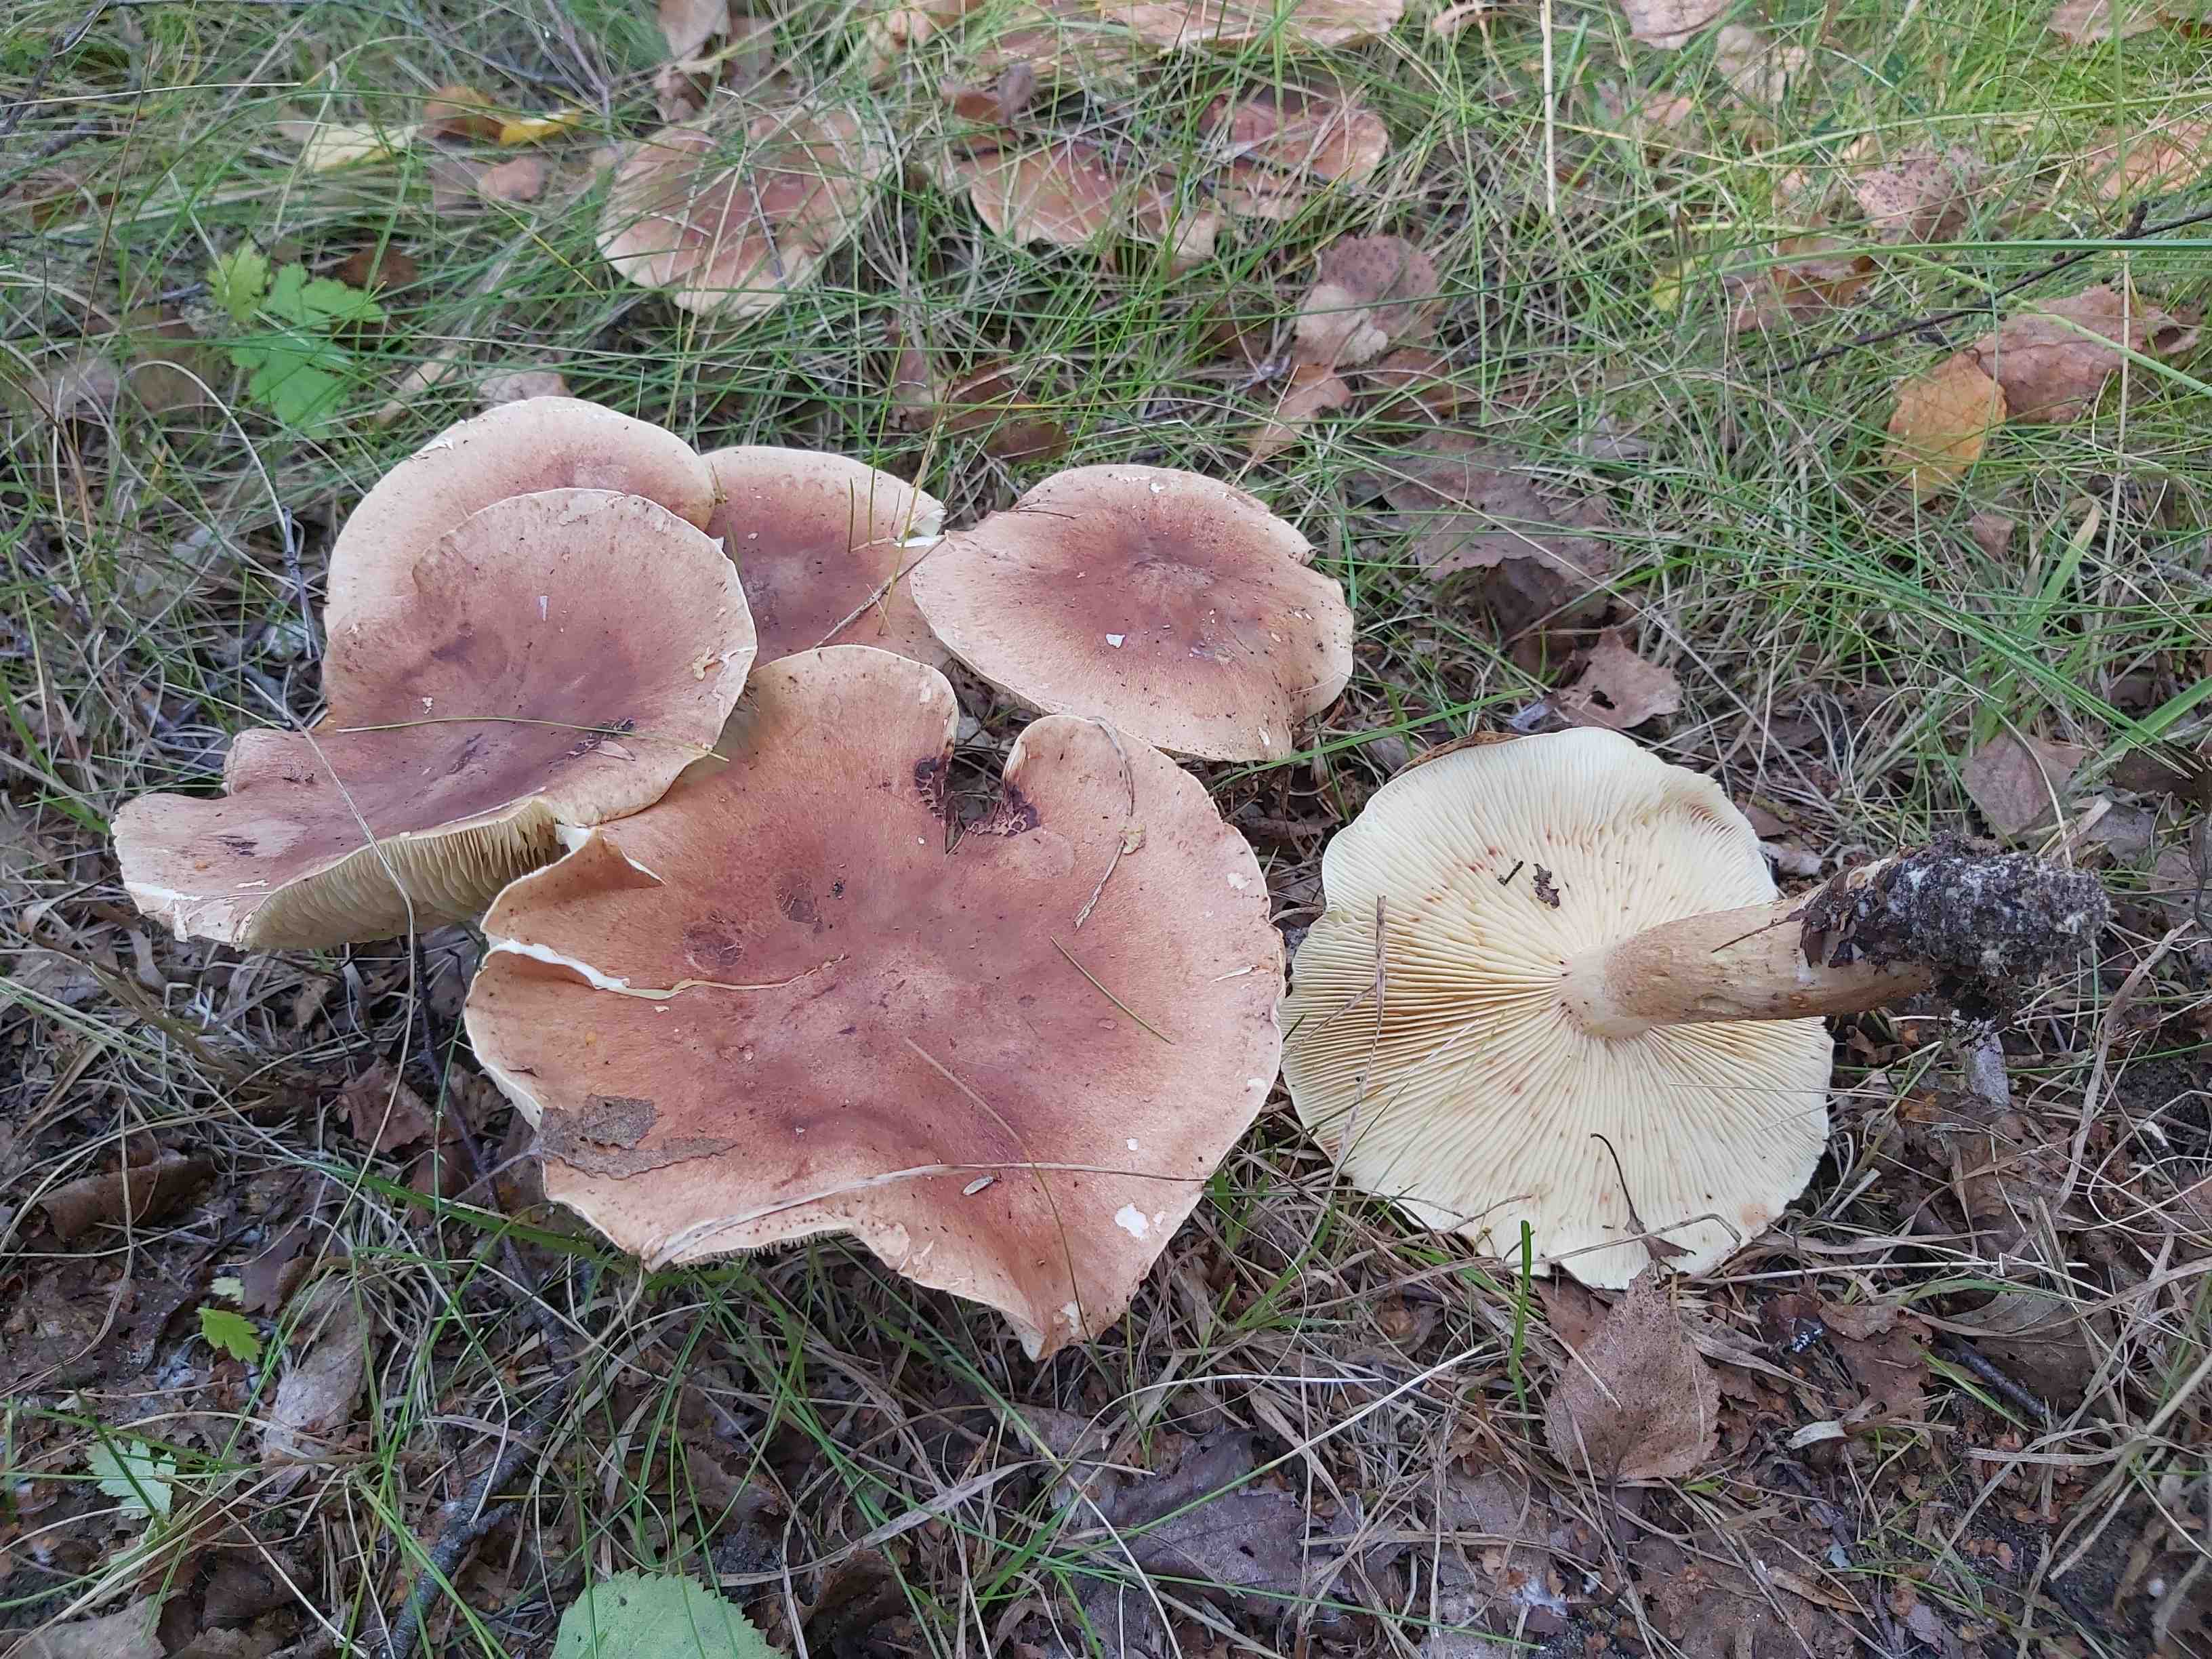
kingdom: Fungi
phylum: Basidiomycota
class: Agaricomycetes
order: Agaricales
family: Tricholomataceae
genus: Tricholoma
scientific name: Tricholoma fulvum
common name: birke-ridderhat
